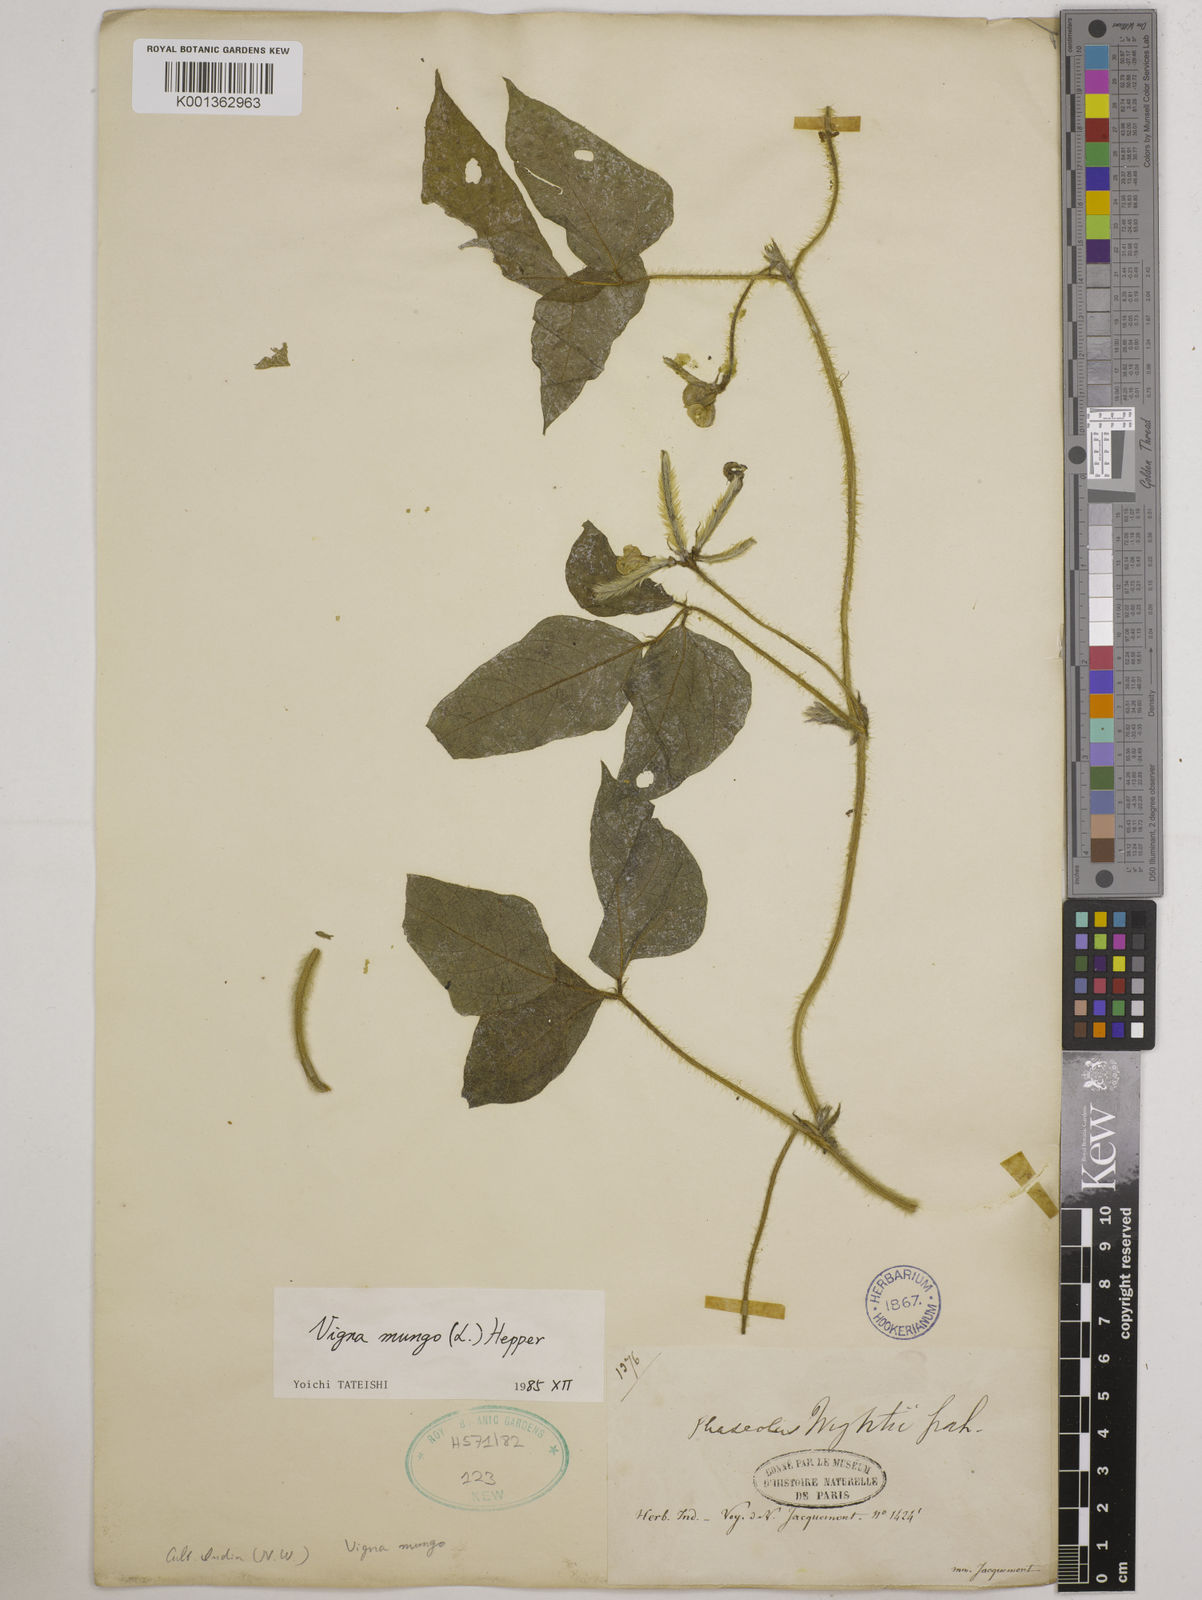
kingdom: Plantae
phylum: Tracheophyta
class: Magnoliopsida
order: Fabales
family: Fabaceae
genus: Vigna
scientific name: Vigna mungo
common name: Black gram
